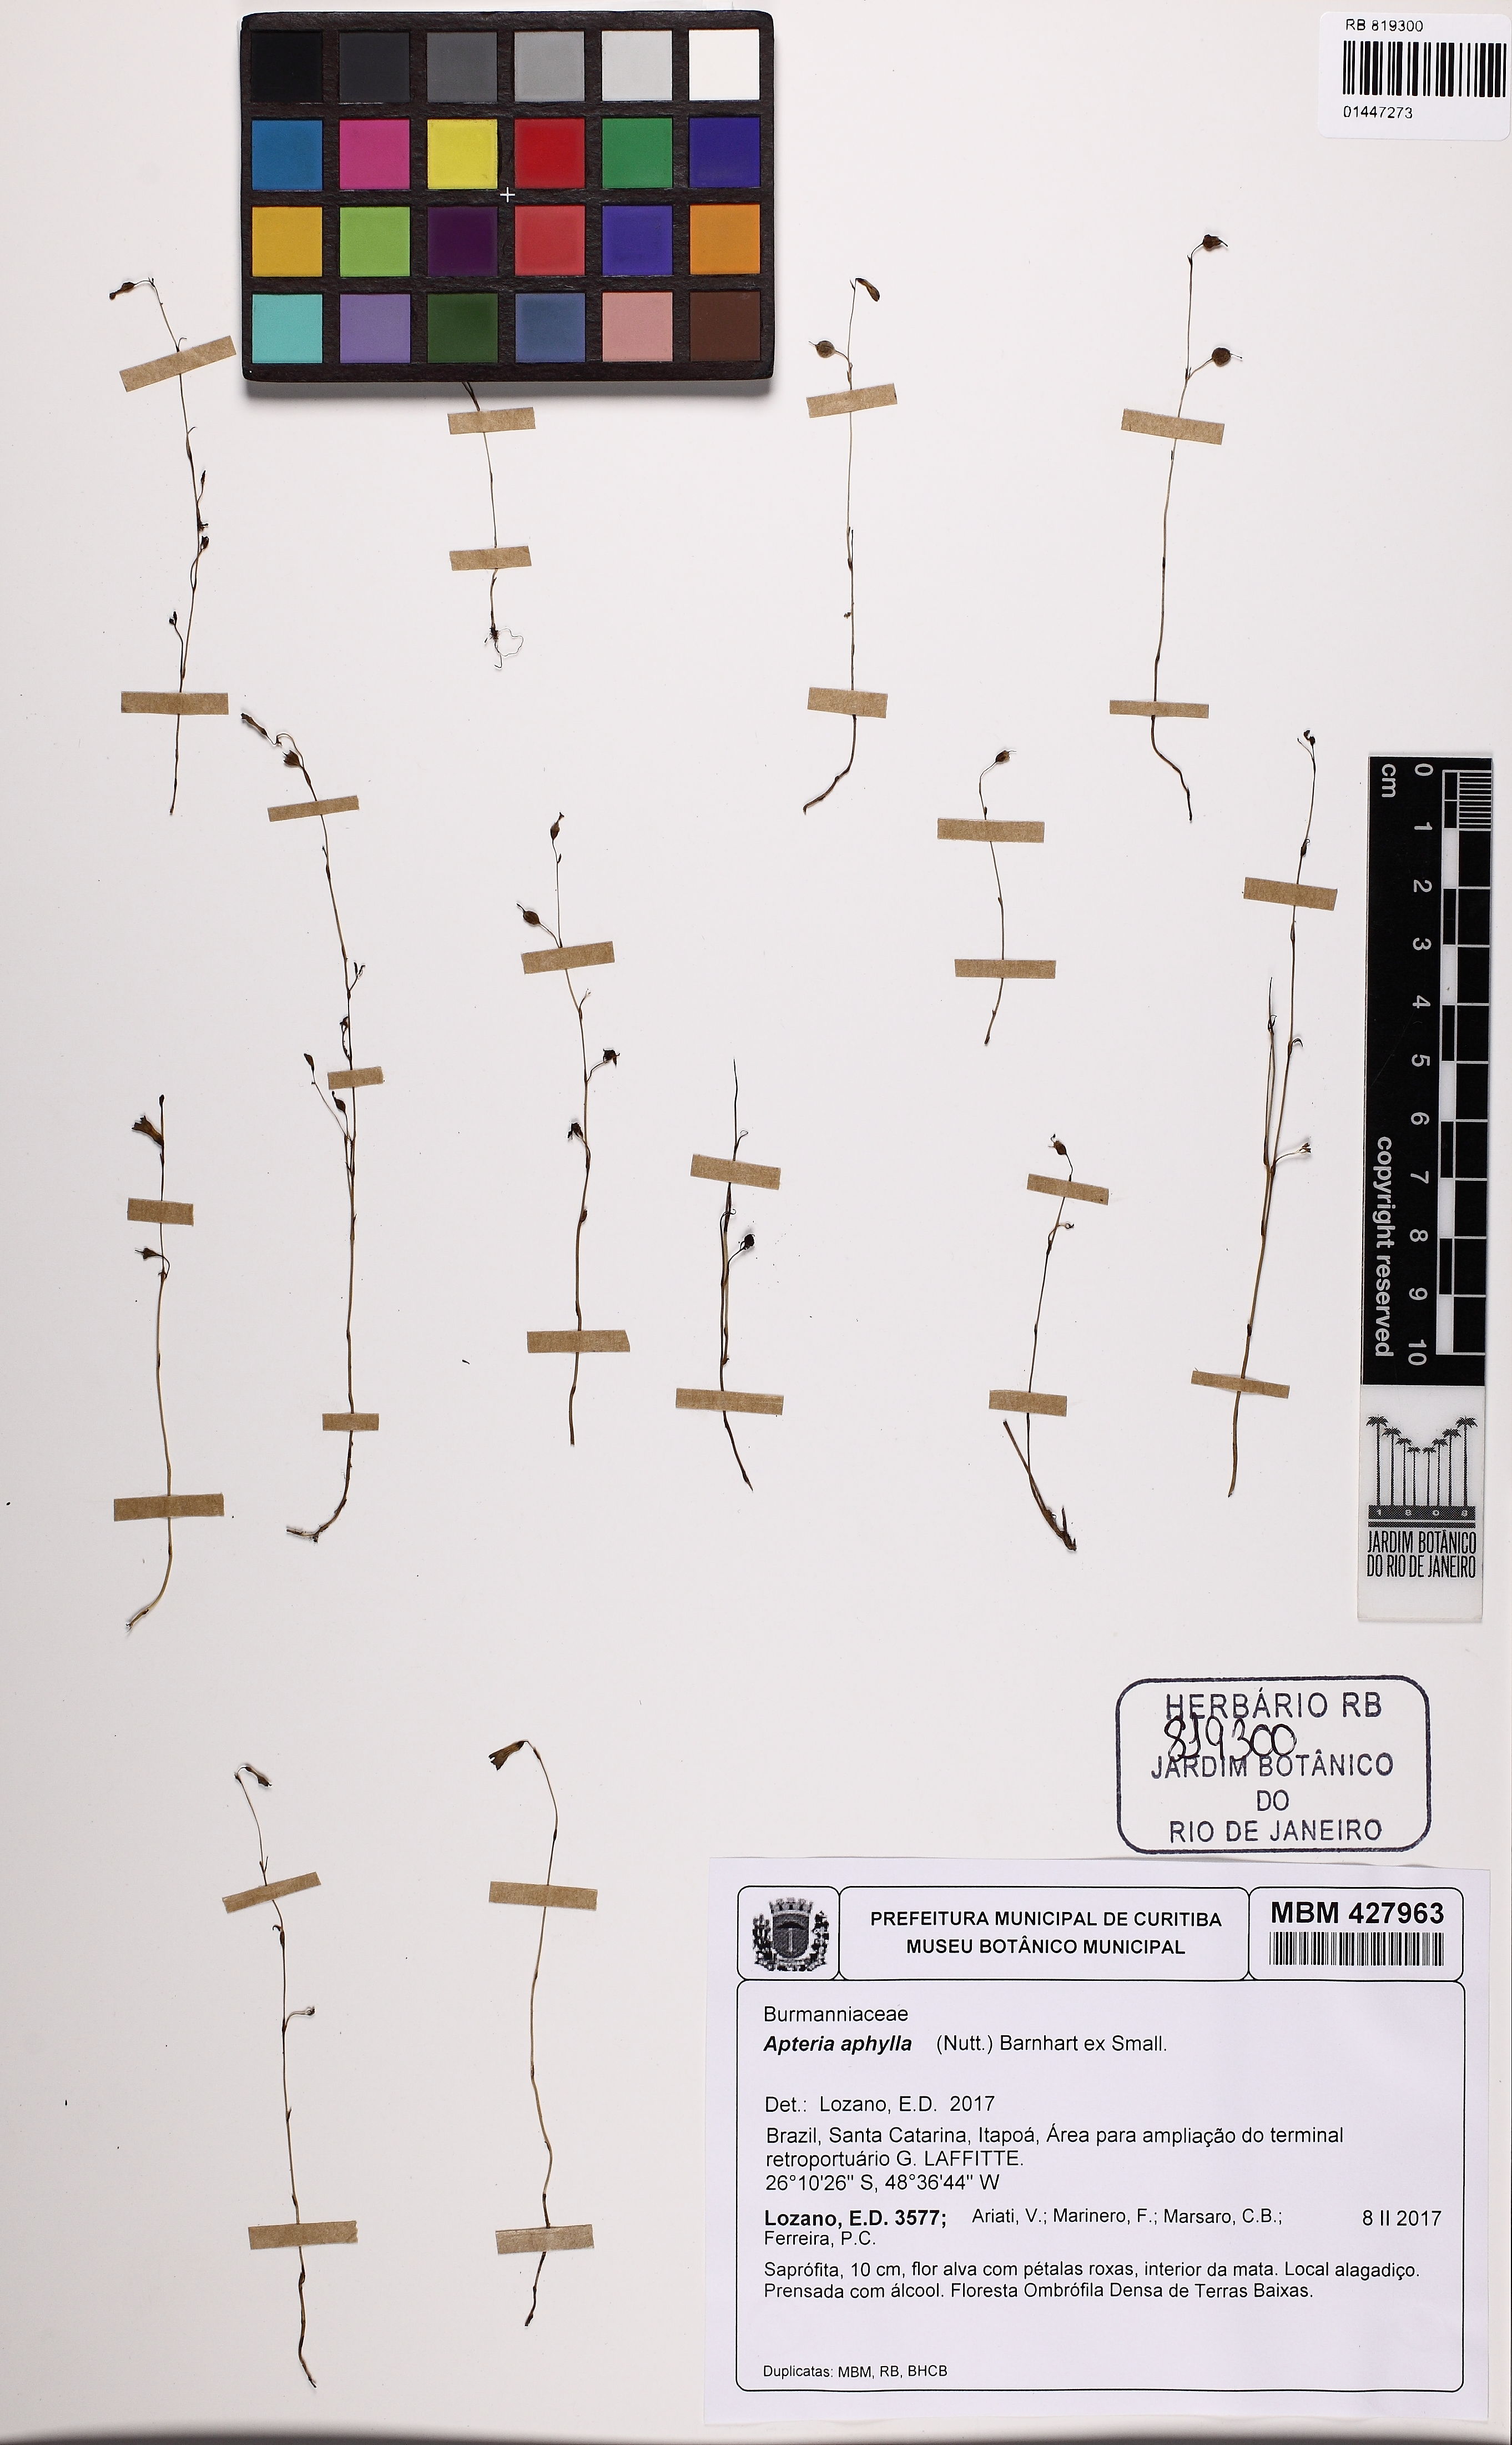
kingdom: Plantae
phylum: Tracheophyta
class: Liliopsida
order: Dioscoreales
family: Burmanniaceae
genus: Apteria
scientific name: Apteria aphylla
